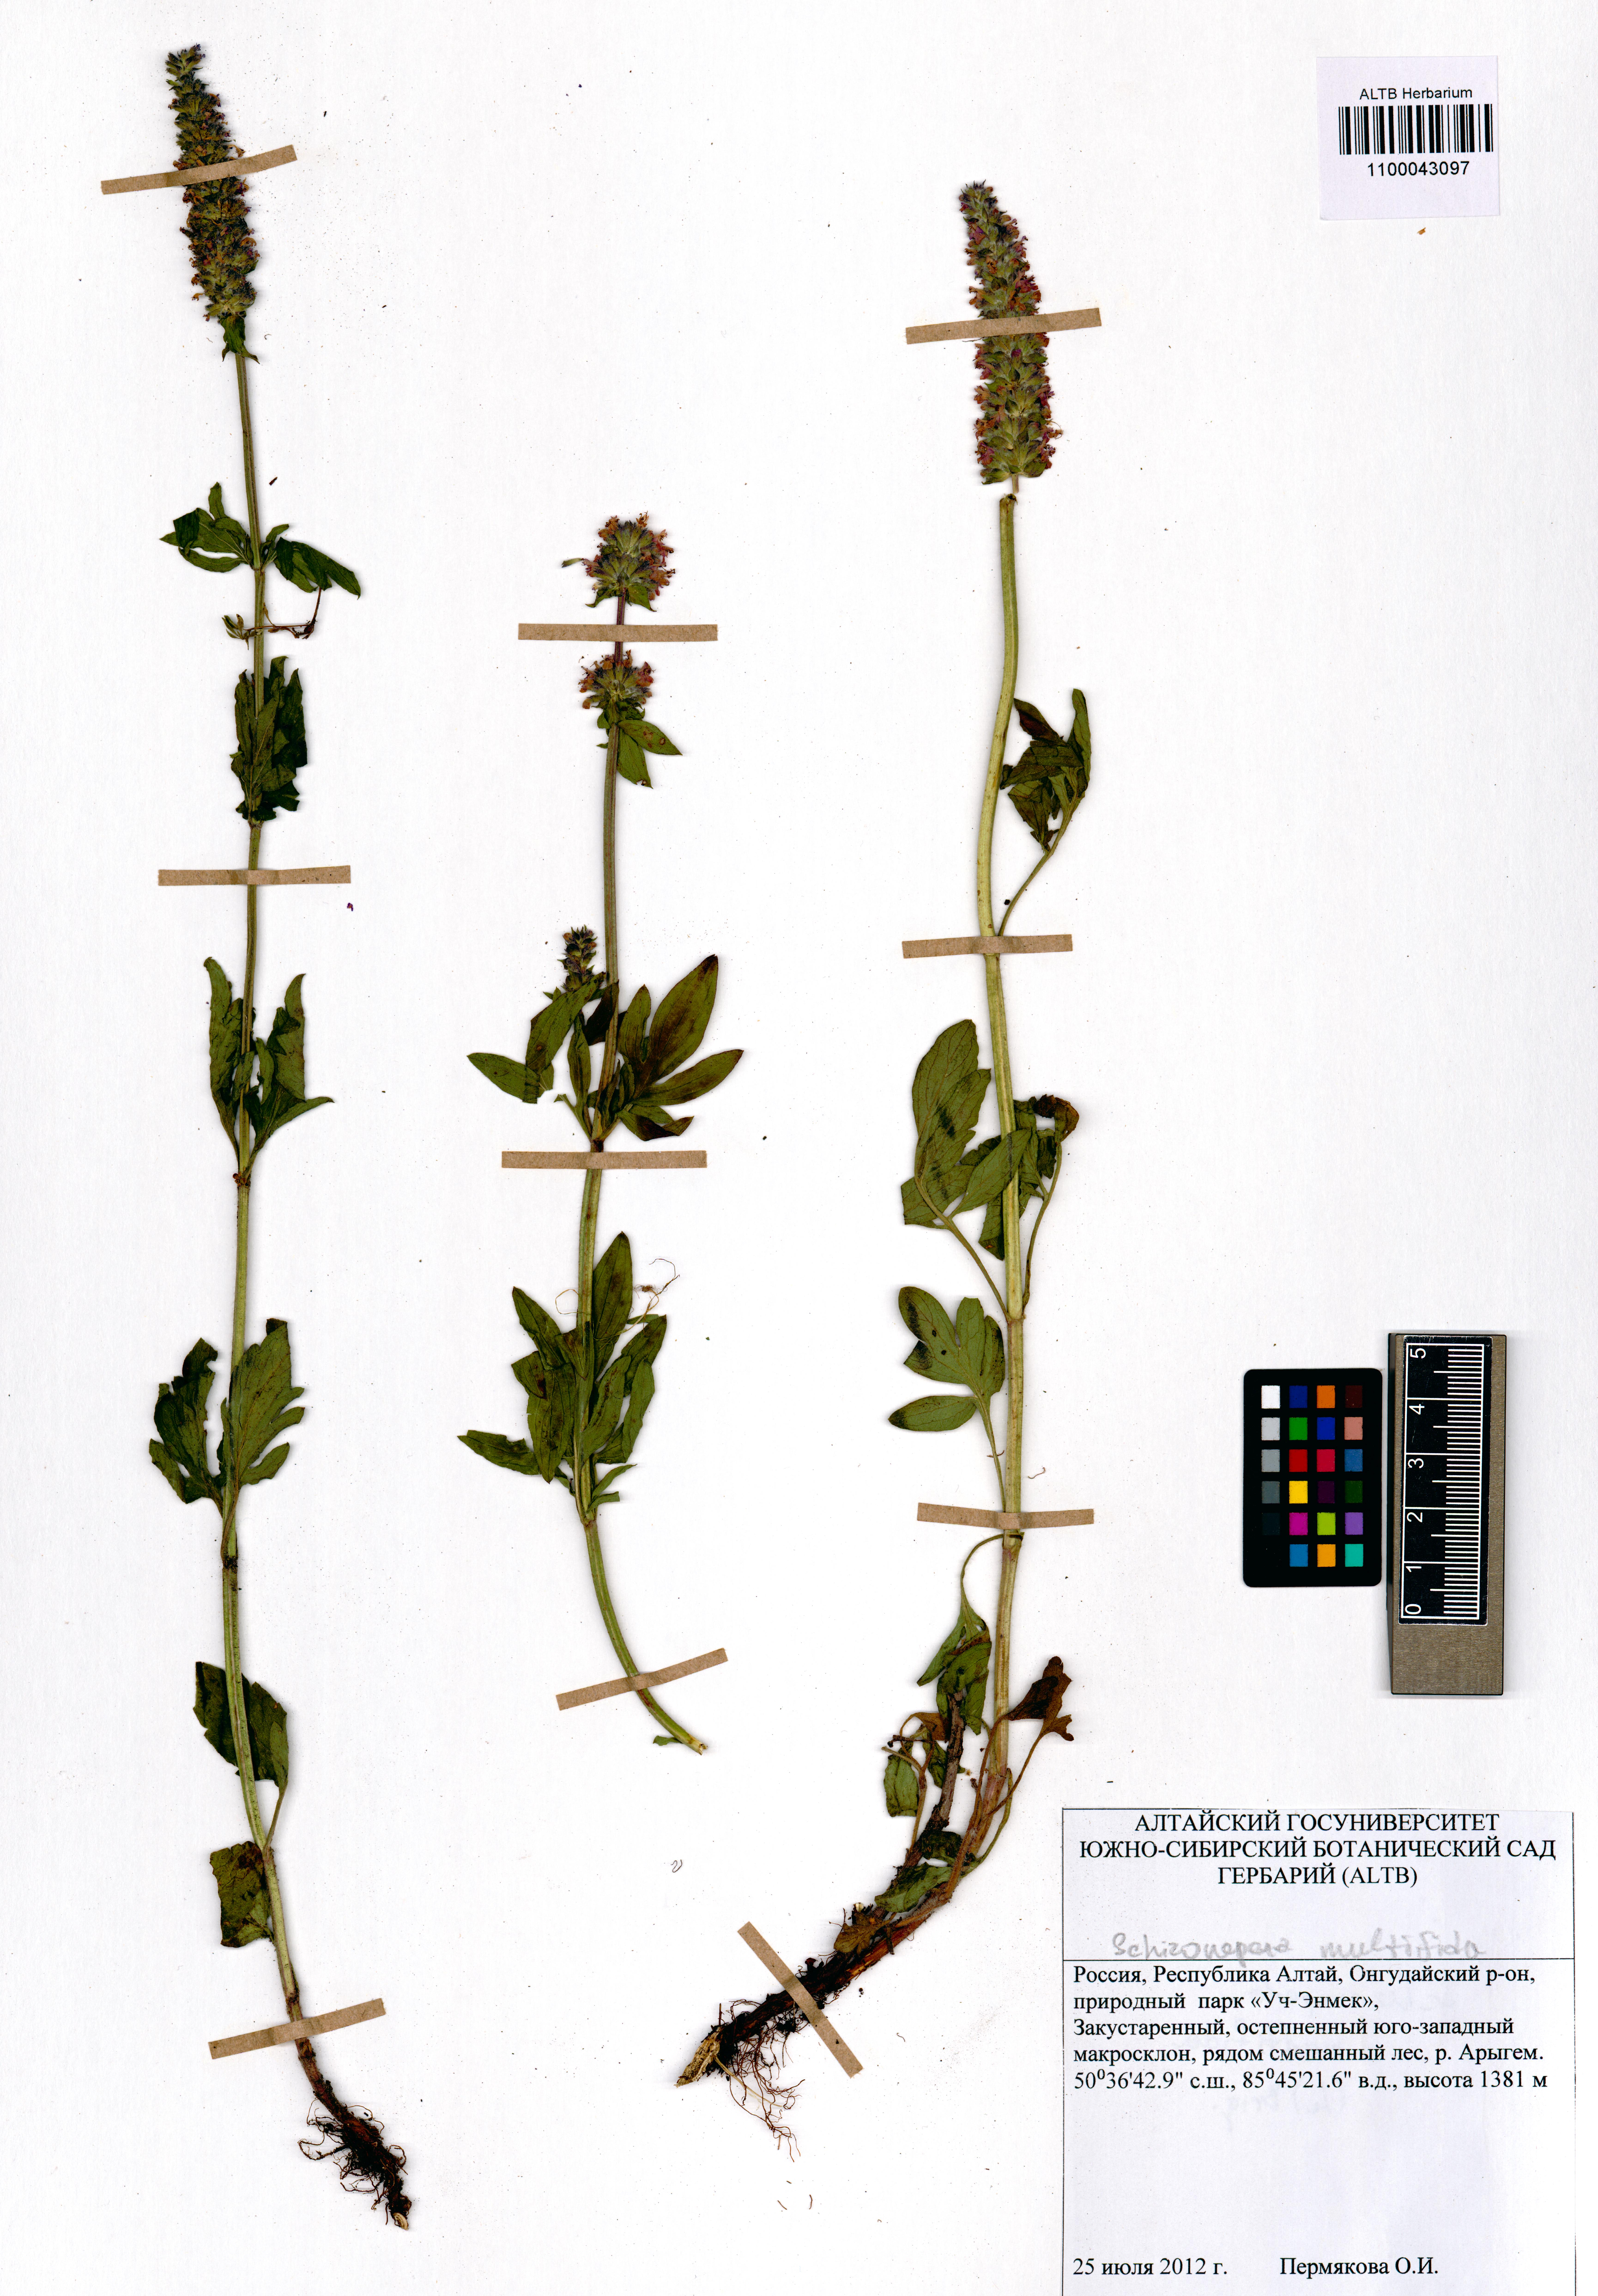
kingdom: Plantae
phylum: Tracheophyta
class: Magnoliopsida
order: Lamiales
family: Lamiaceae
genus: Nepeta
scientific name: Nepeta multifida
